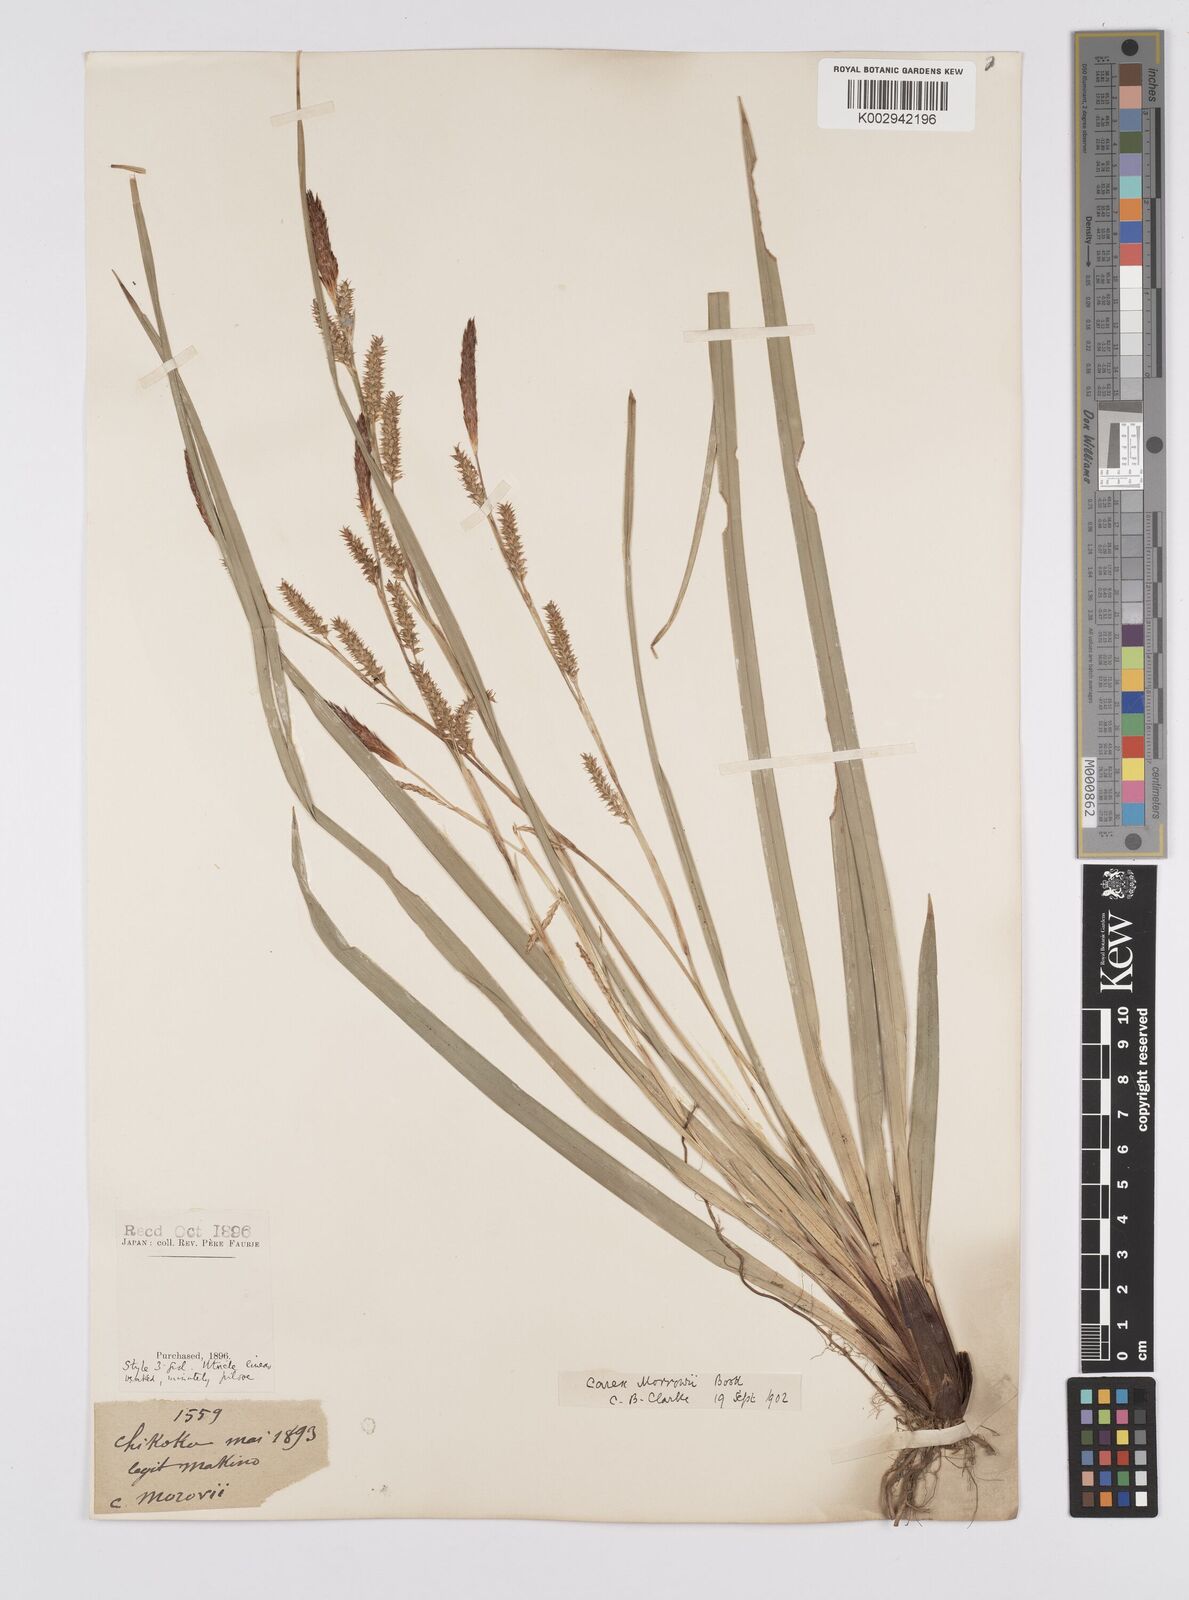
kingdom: Plantae
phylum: Tracheophyta
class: Liliopsida
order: Poales
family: Cyperaceae
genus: Carex
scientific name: Carex morrowii
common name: Japanese sedge
